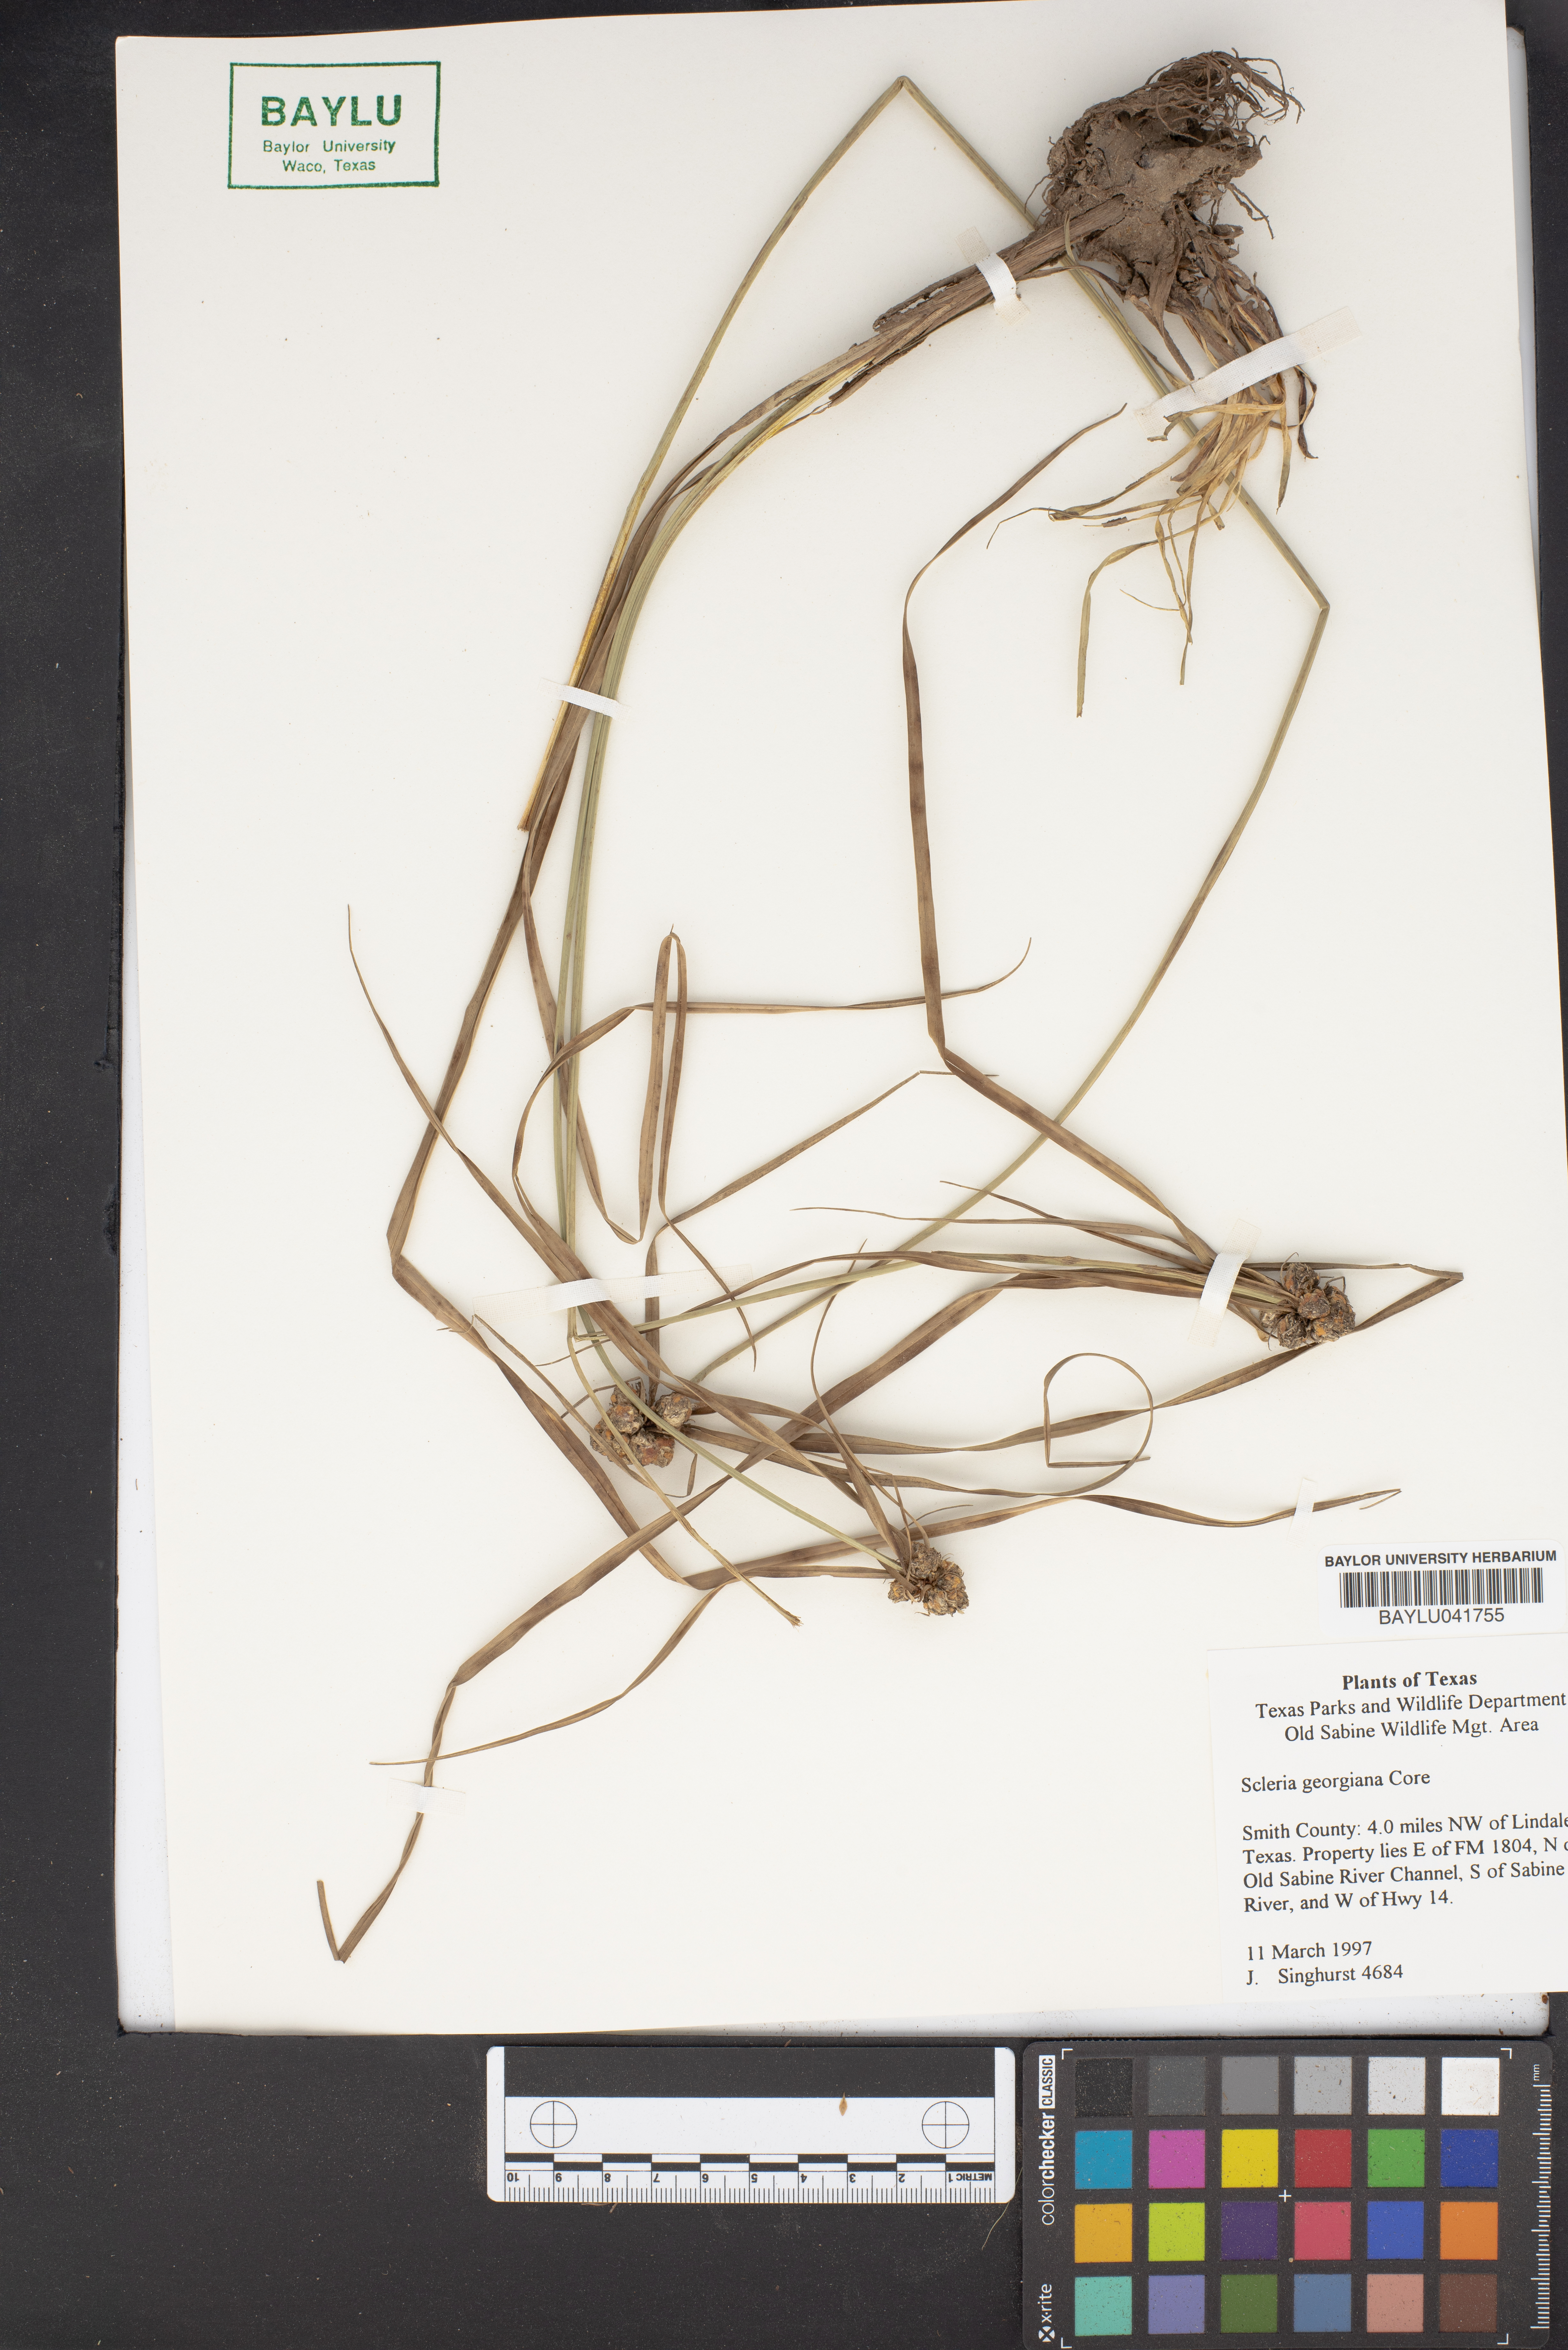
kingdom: Plantae
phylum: Tracheophyta
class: Liliopsida
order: Poales
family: Cyperaceae
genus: Scleria
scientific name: Scleria georgiana
